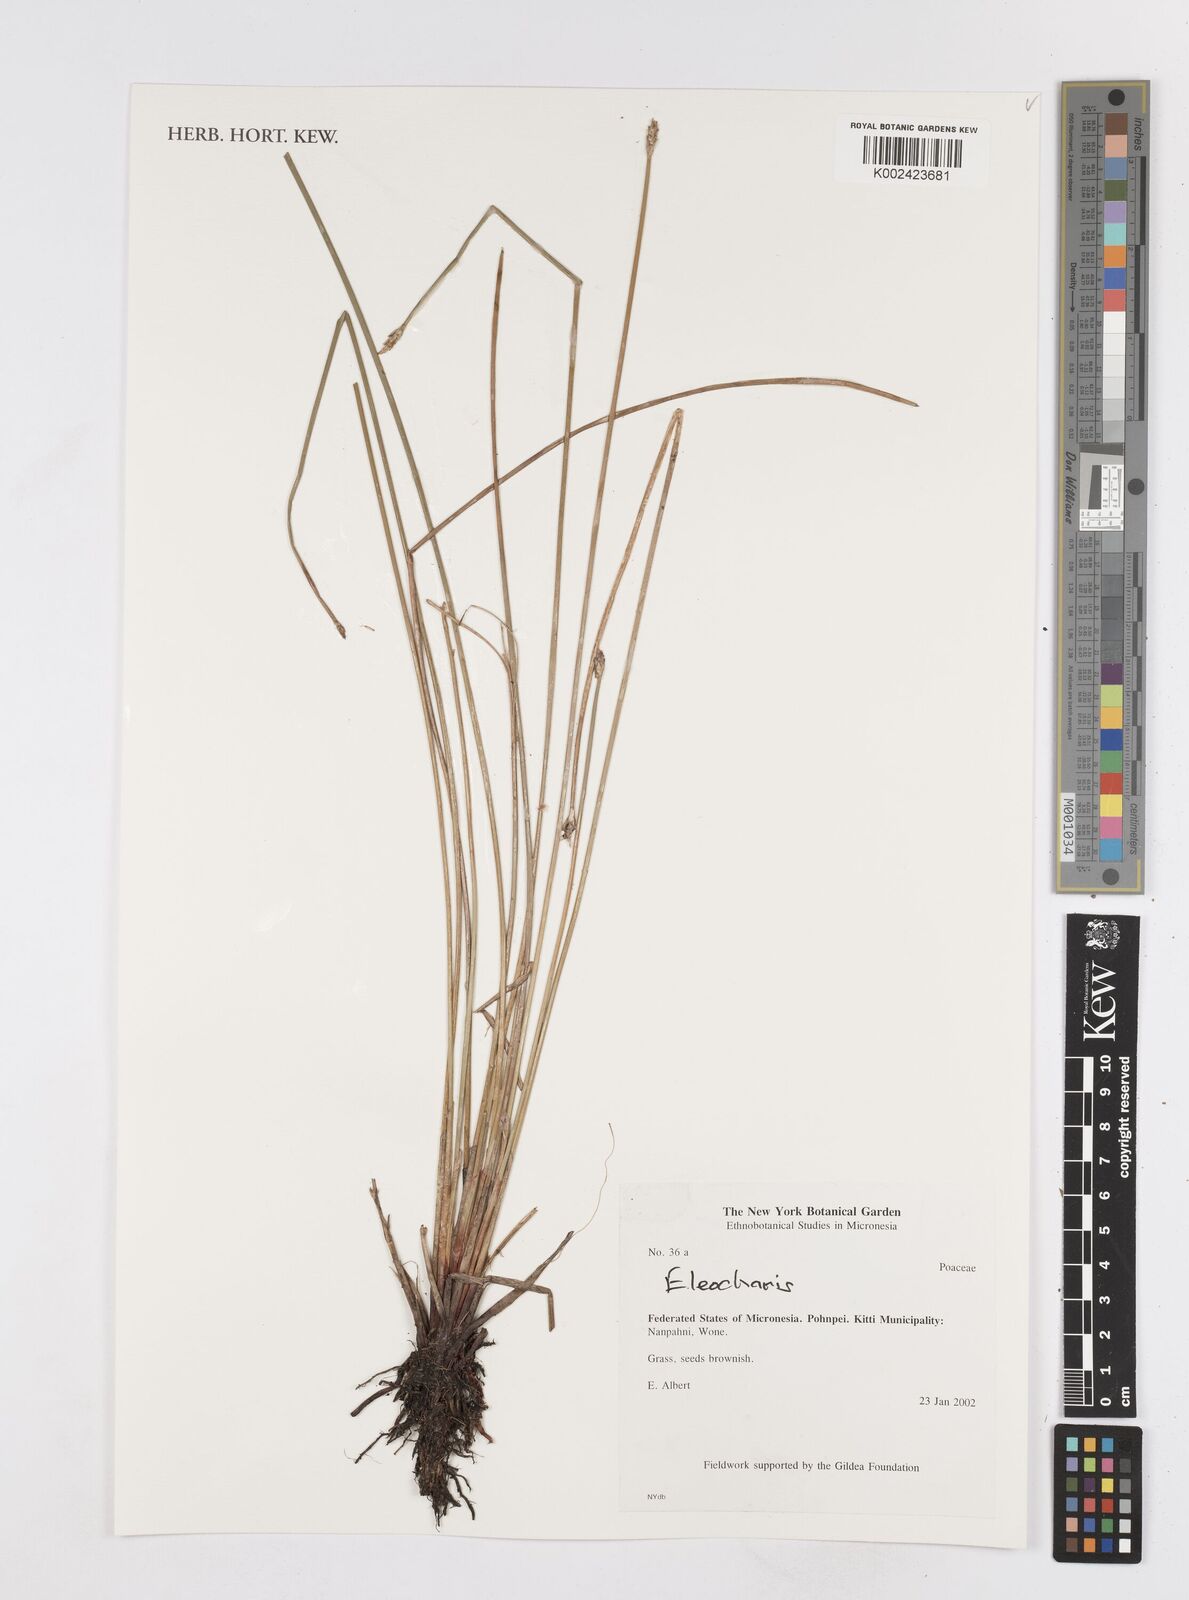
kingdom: Plantae
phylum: Tracheophyta
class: Liliopsida
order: Poales
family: Cyperaceae
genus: Eleocharis
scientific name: Eleocharis
